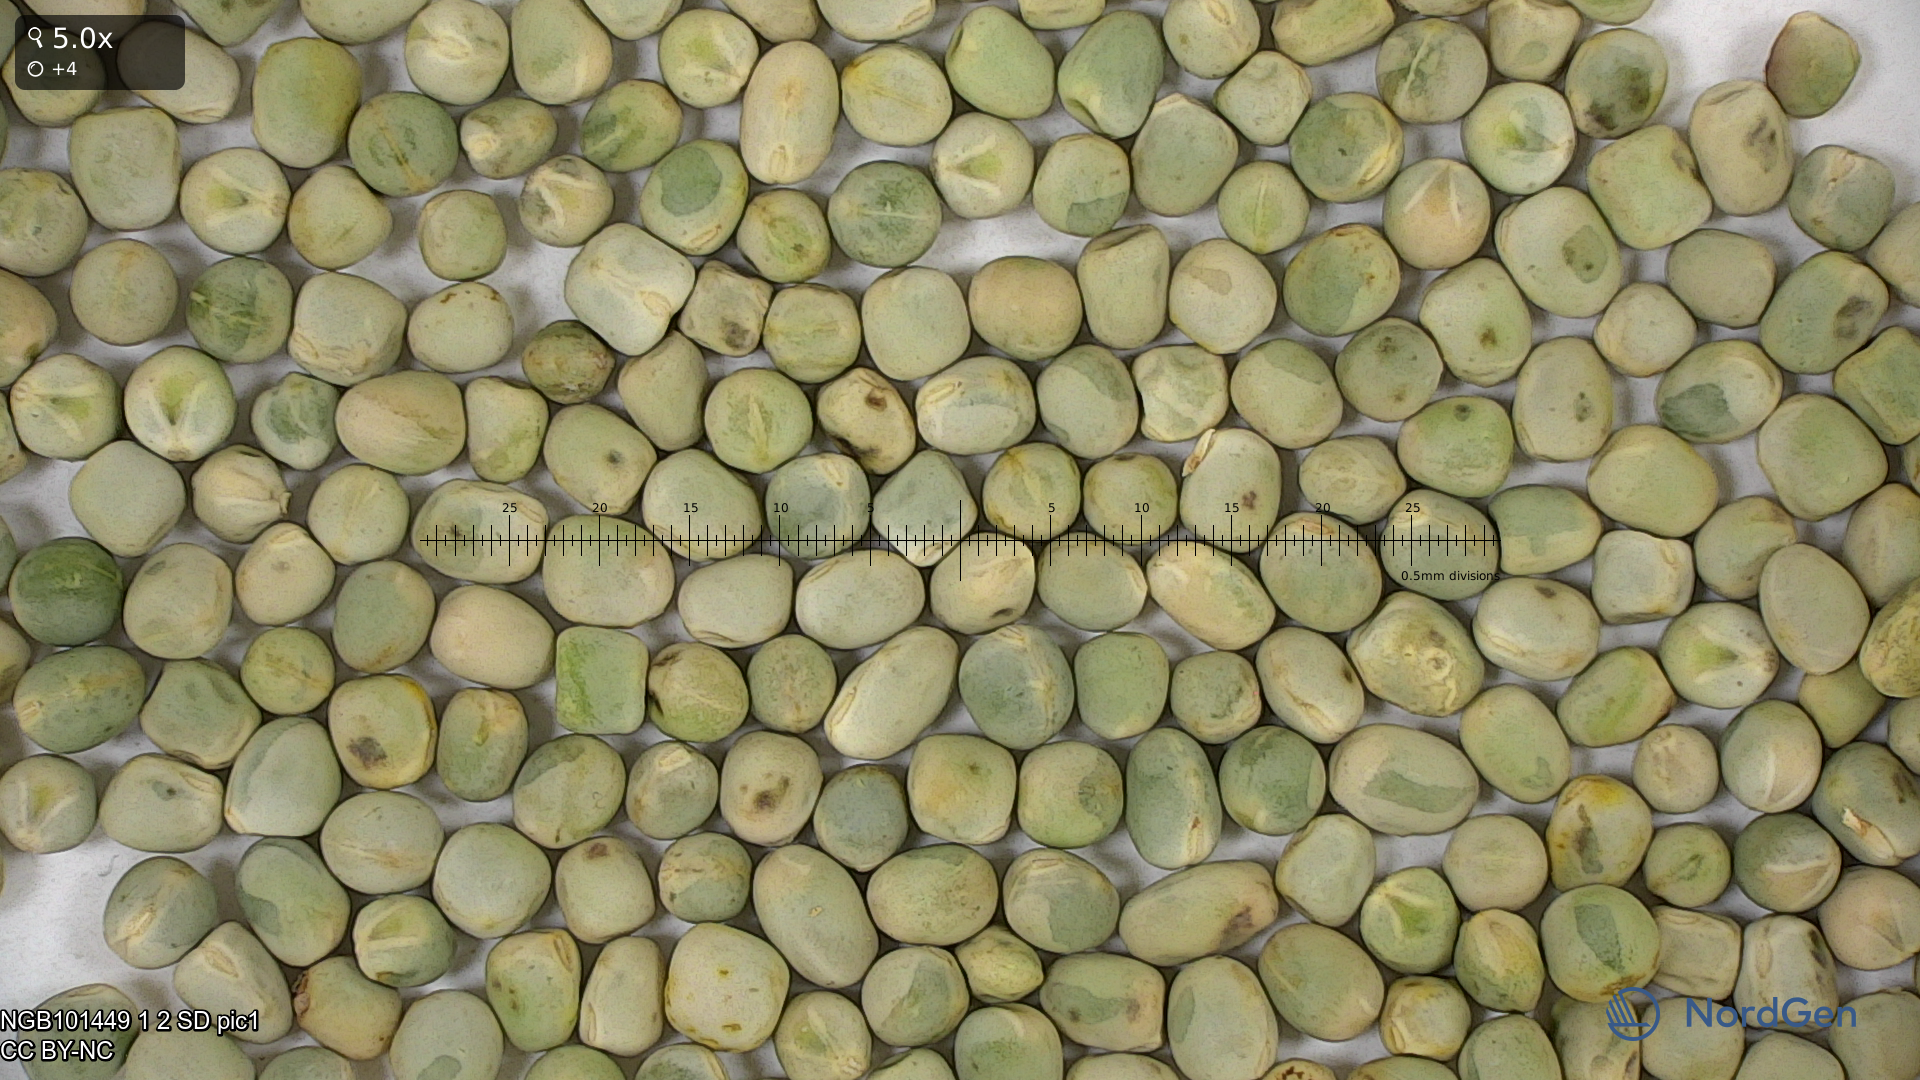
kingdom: Plantae
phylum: Tracheophyta
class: Magnoliopsida
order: Fabales
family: Fabaceae
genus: Lathyrus
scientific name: Lathyrus oleraceus
